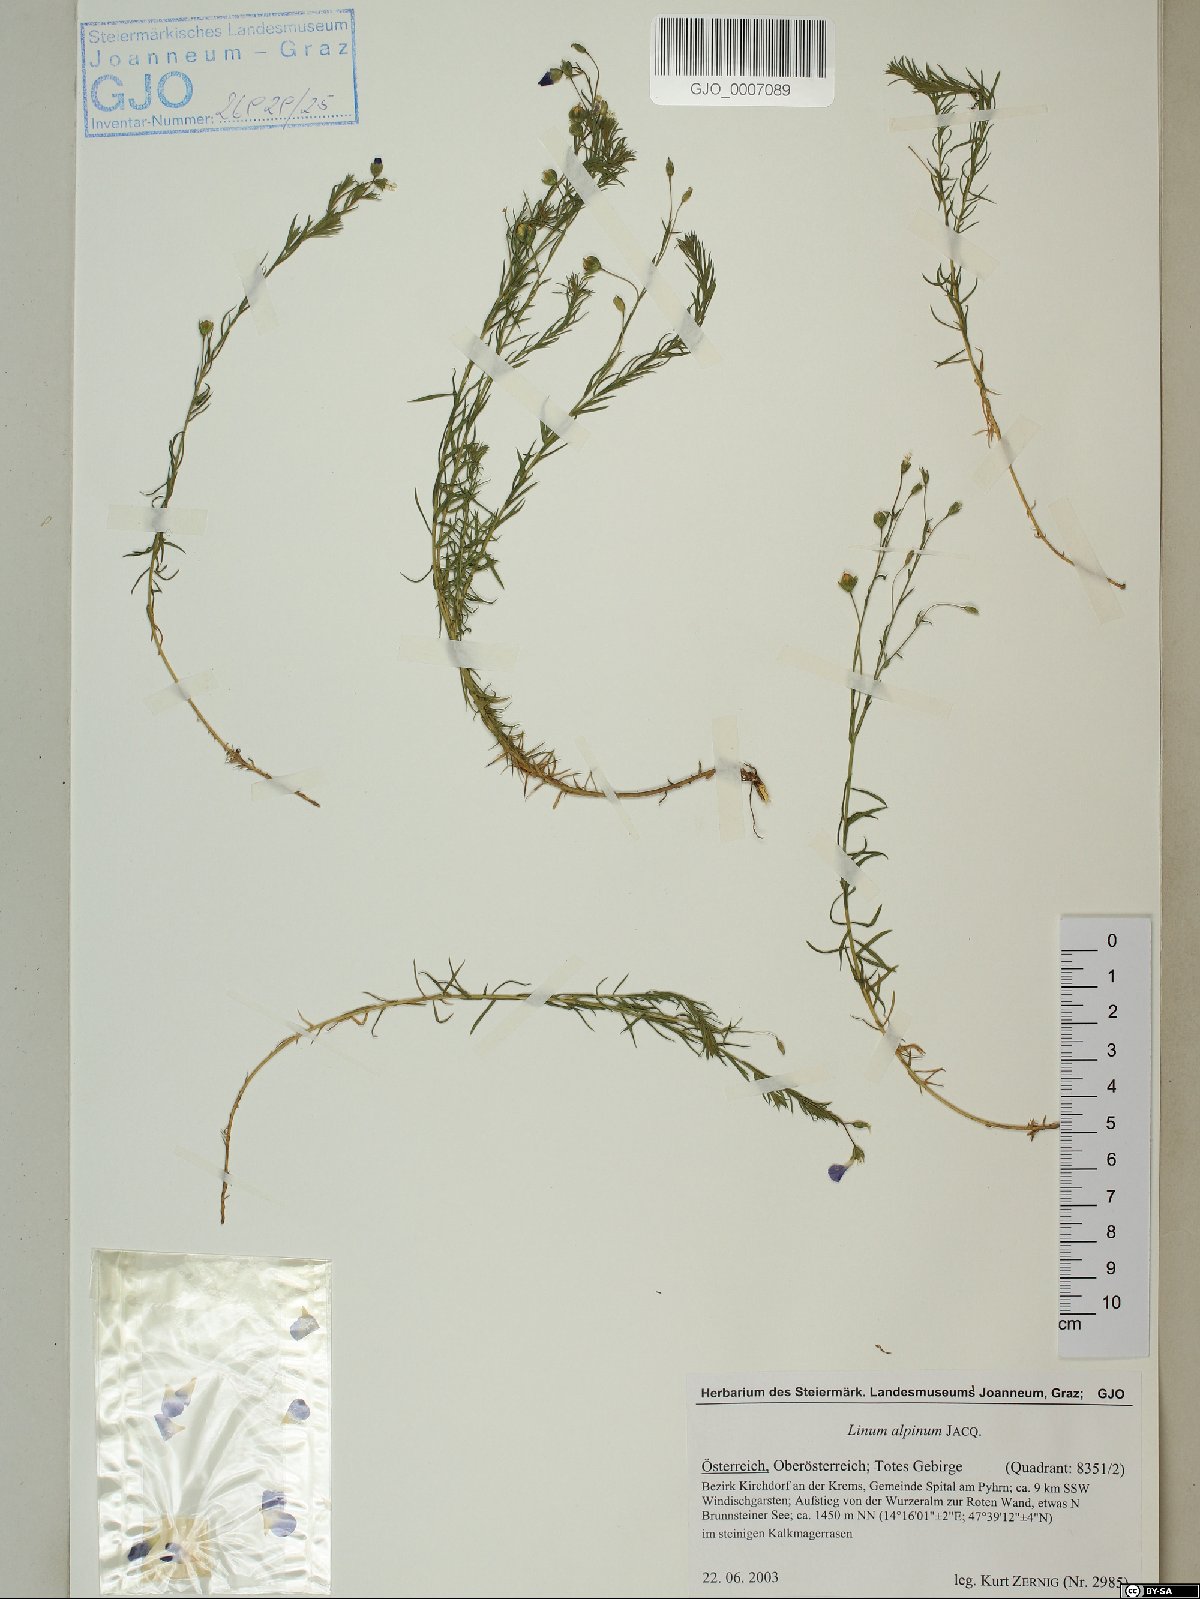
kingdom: Plantae
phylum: Tracheophyta
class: Magnoliopsida
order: Malpighiales
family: Linaceae
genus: Linum
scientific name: Linum alpinum
